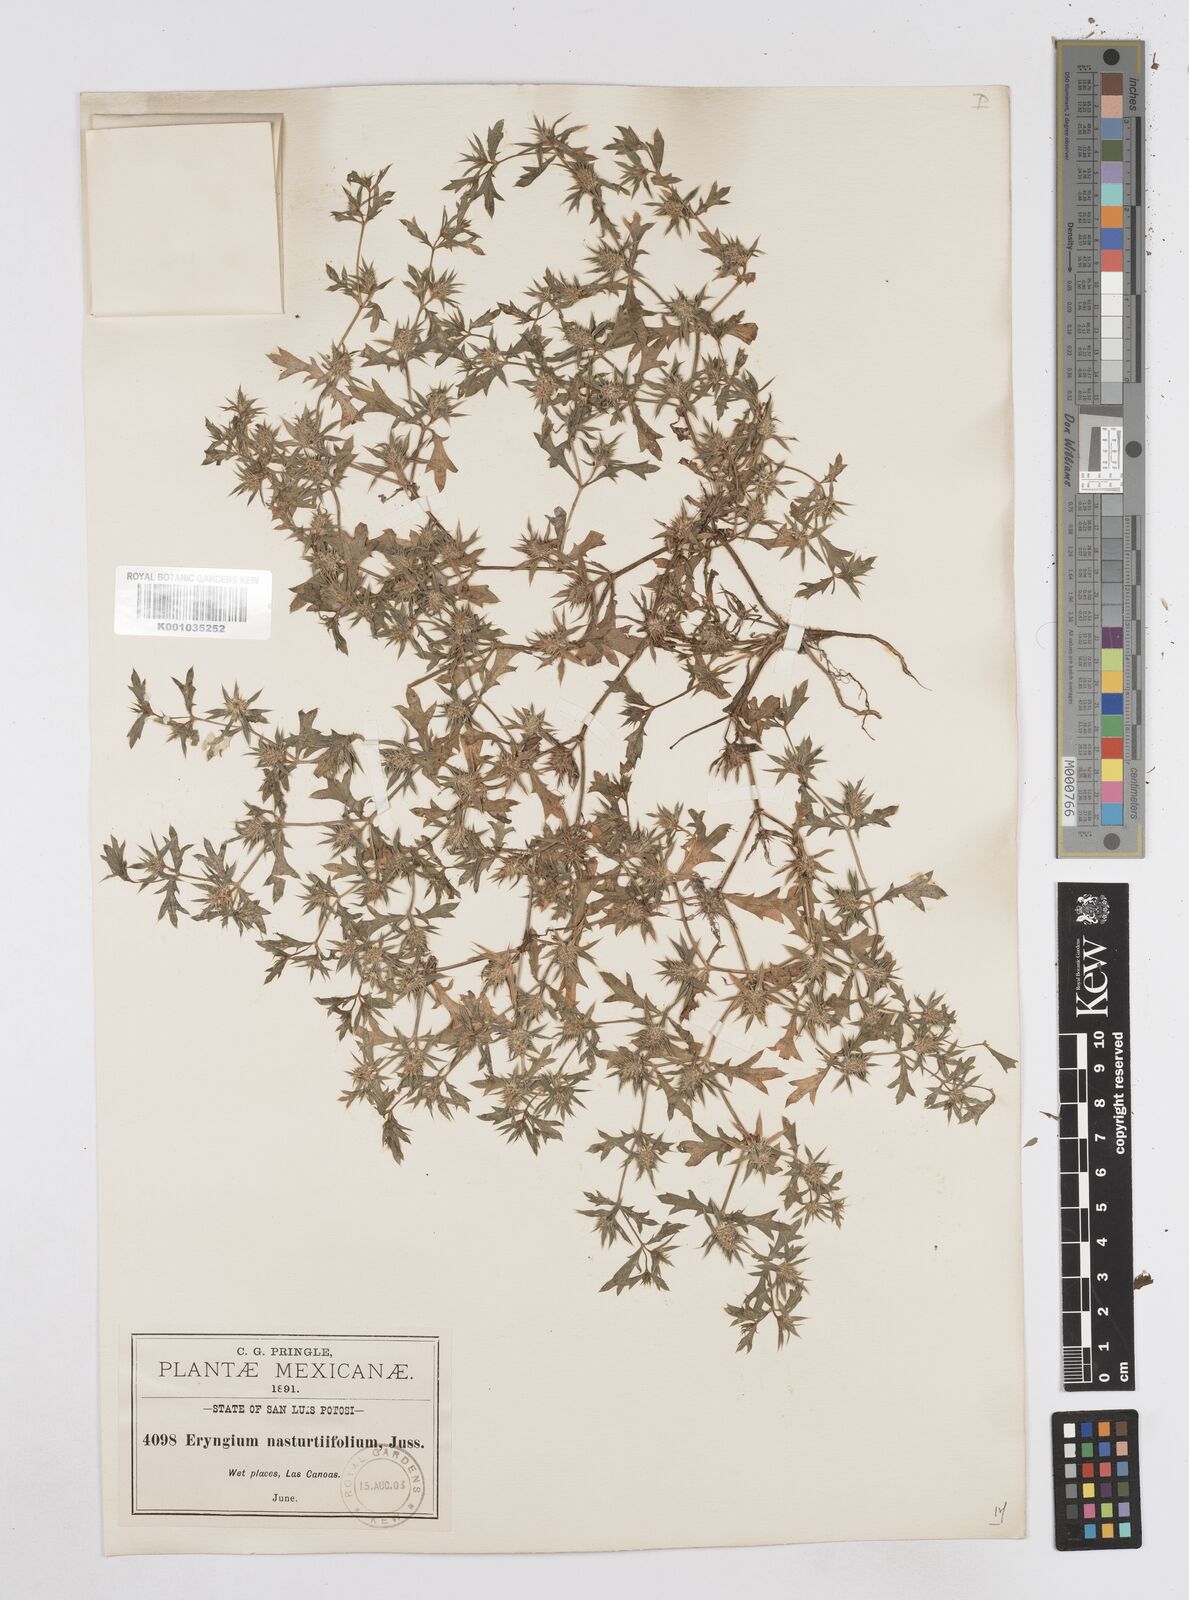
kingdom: Plantae
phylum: Tracheophyta
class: Magnoliopsida
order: Apiales
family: Apiaceae
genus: Eryngium
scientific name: Eryngium nasturtiifolium
